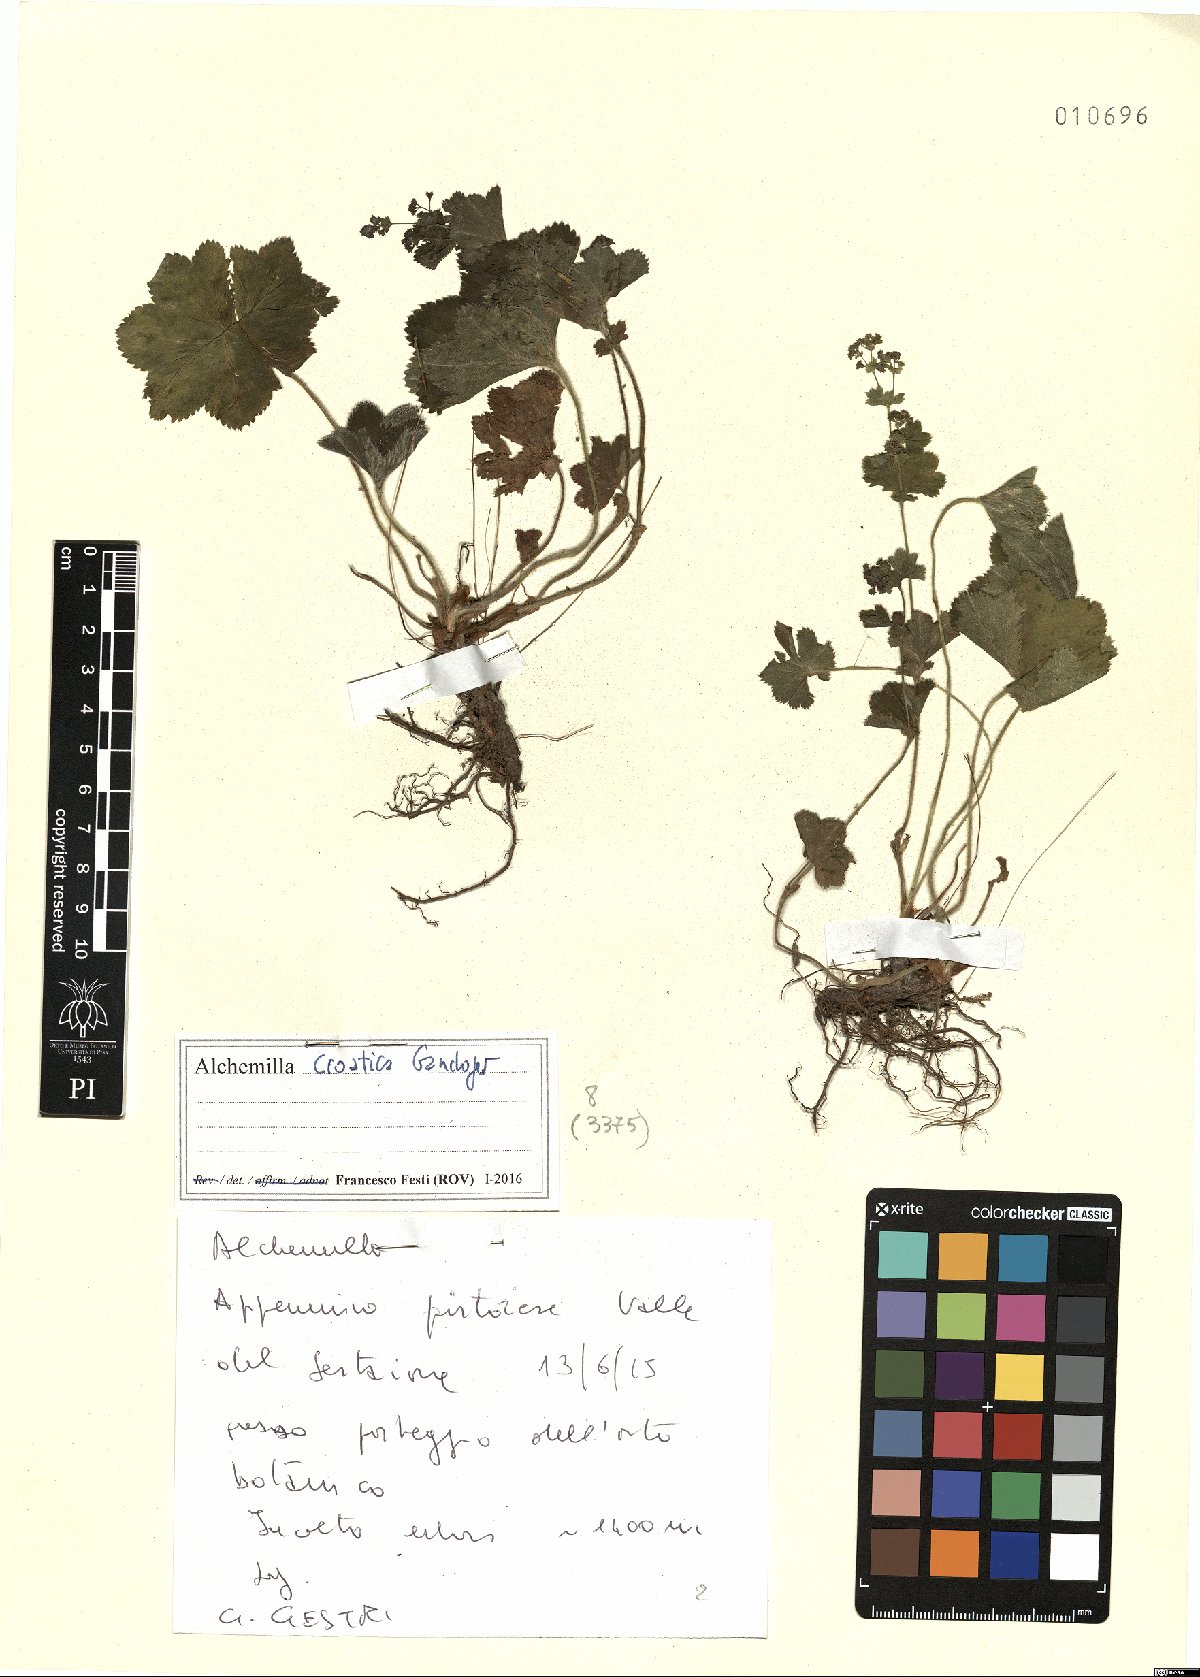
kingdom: Plantae
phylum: Tracheophyta
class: Magnoliopsida
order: Rosales
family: Rosaceae
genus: Alchemilla
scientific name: Alchemilla croatica
